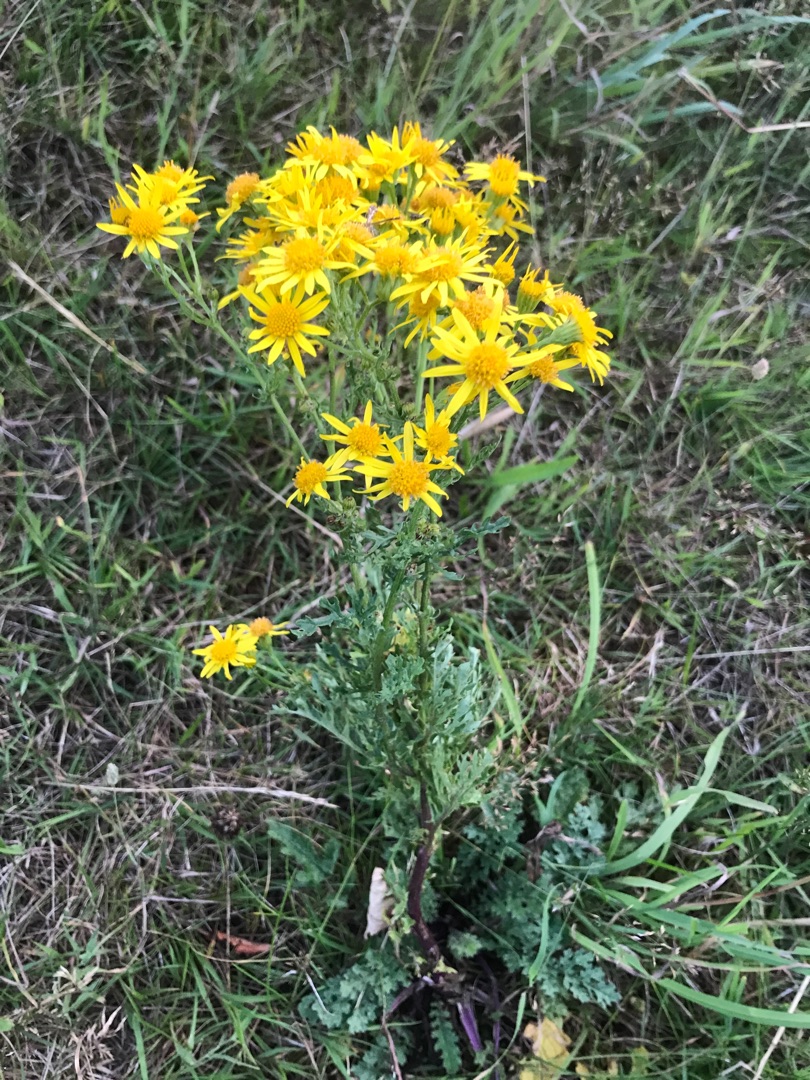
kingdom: Plantae
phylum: Tracheophyta
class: Magnoliopsida
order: Asterales
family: Asteraceae
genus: Jacobaea
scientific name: Jacobaea vulgaris
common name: Eng-brandbæger
